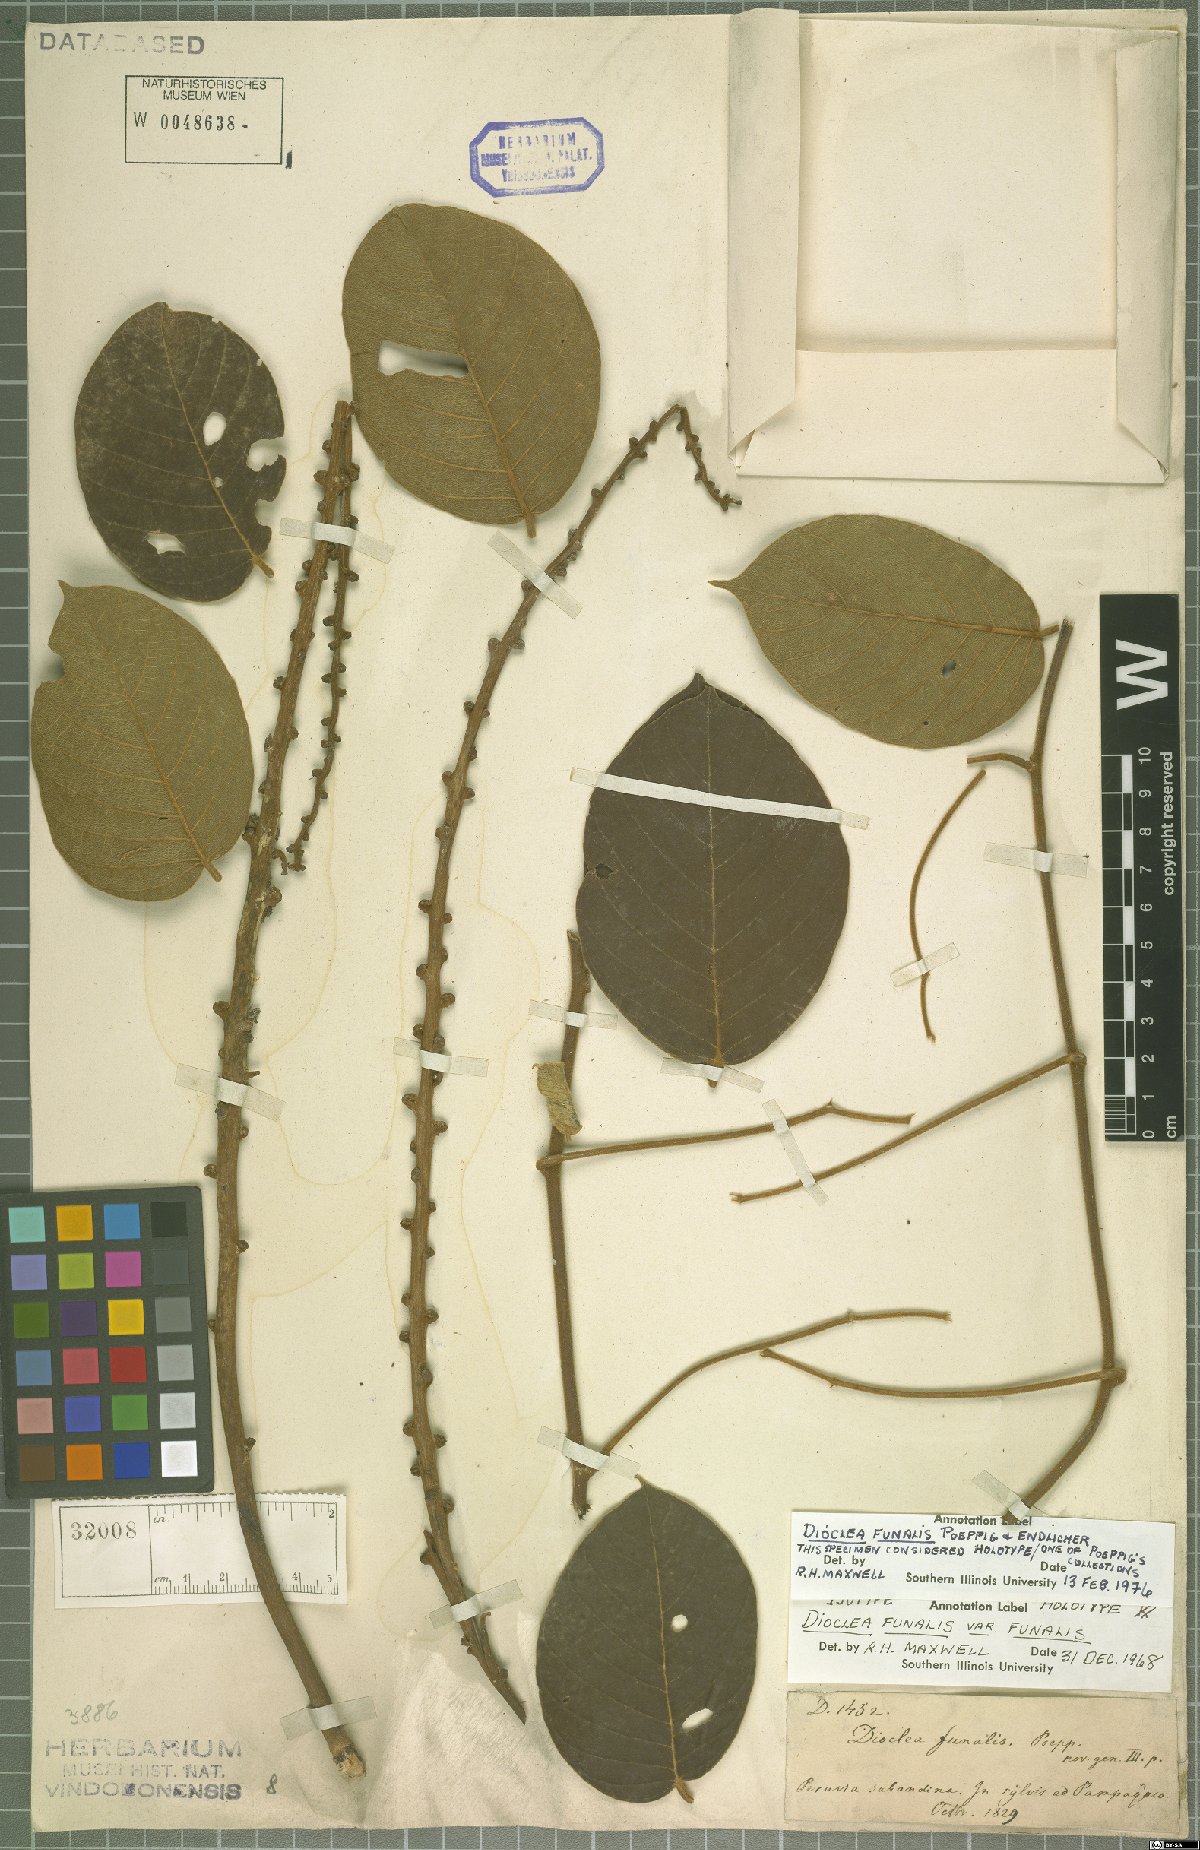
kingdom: Plantae
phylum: Tracheophyta
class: Magnoliopsida
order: Fabales
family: Fabaceae
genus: Macropsychanthus
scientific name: Macropsychanthus funalis
